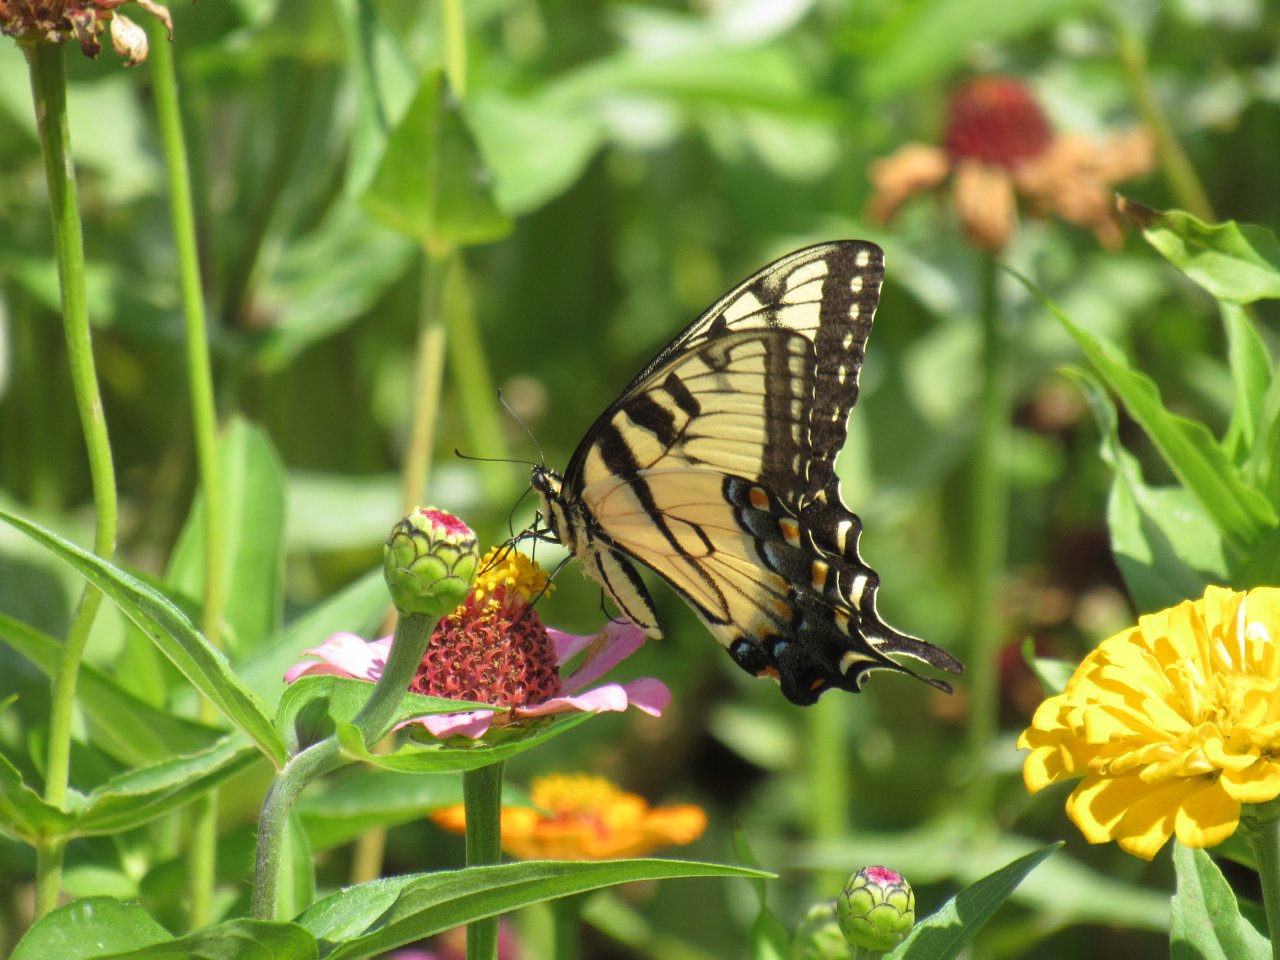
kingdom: Animalia
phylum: Arthropoda
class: Insecta
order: Lepidoptera
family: Papilionidae
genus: Pterourus
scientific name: Pterourus glaucus
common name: Eastern Tiger Swallowtail
